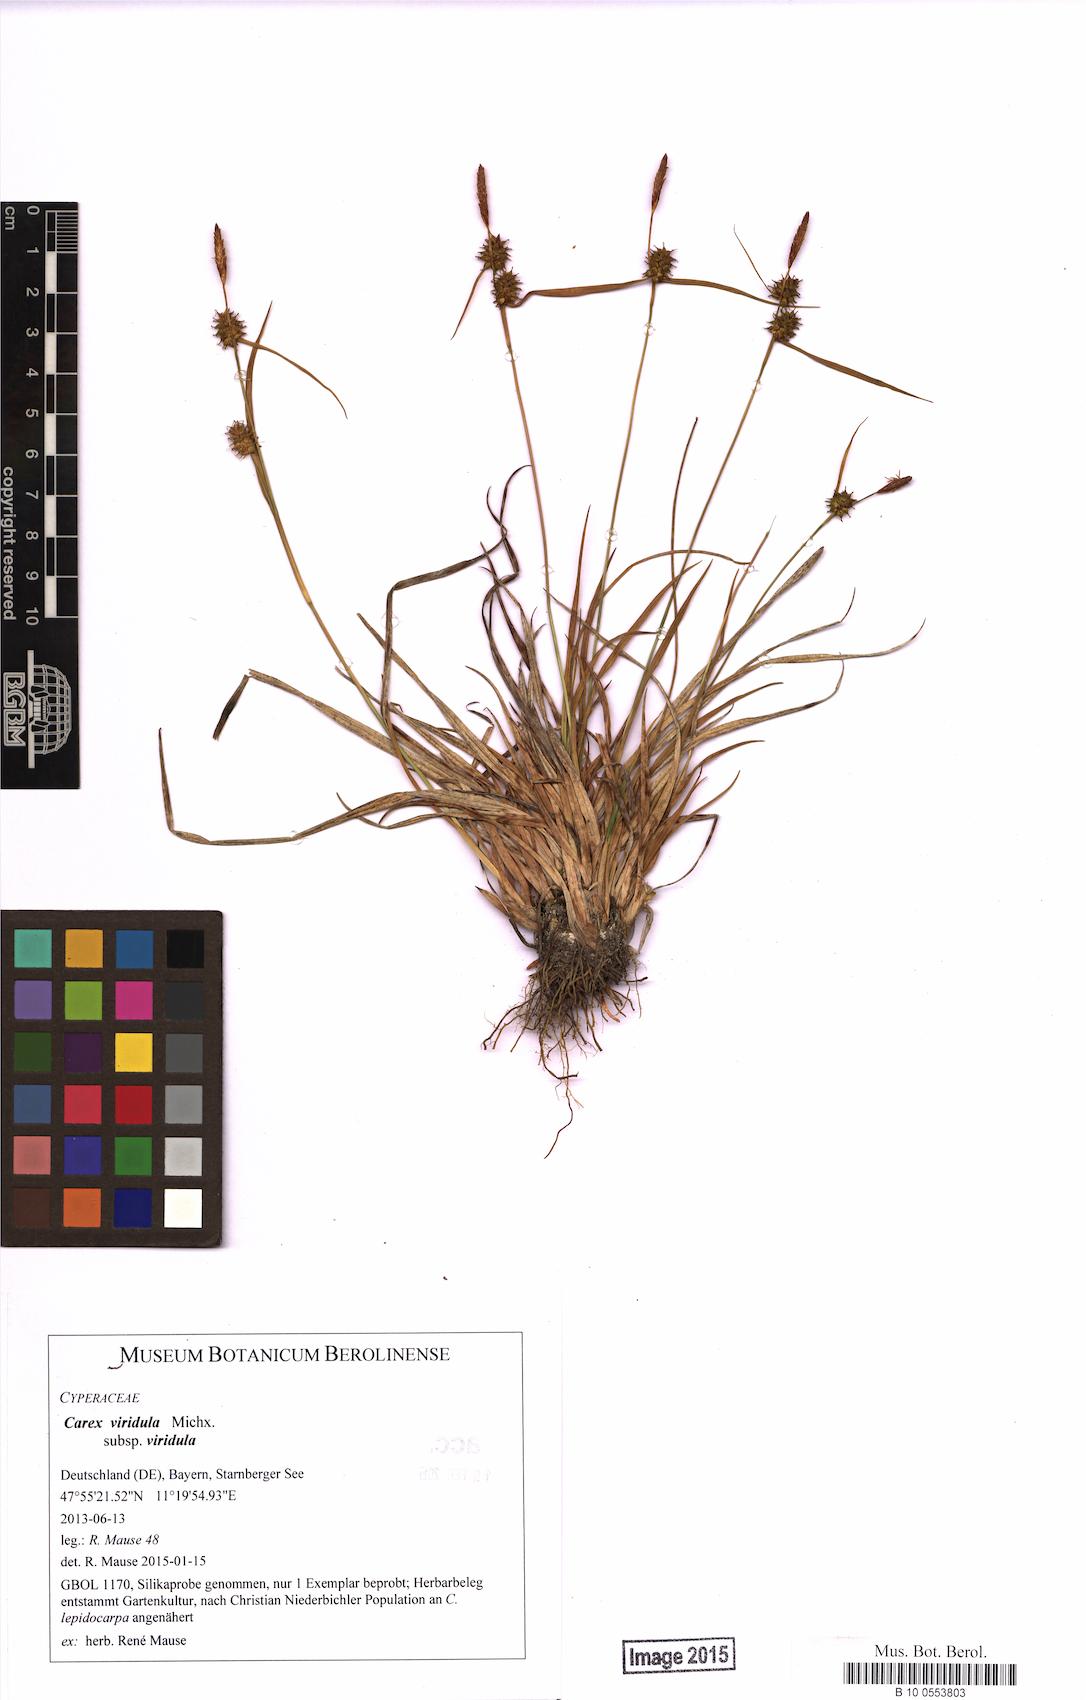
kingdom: Plantae
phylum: Tracheophyta
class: Liliopsida
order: Poales
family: Cyperaceae
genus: Carex
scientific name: Carex oederi
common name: Common & small-fruited yellow-sedge
